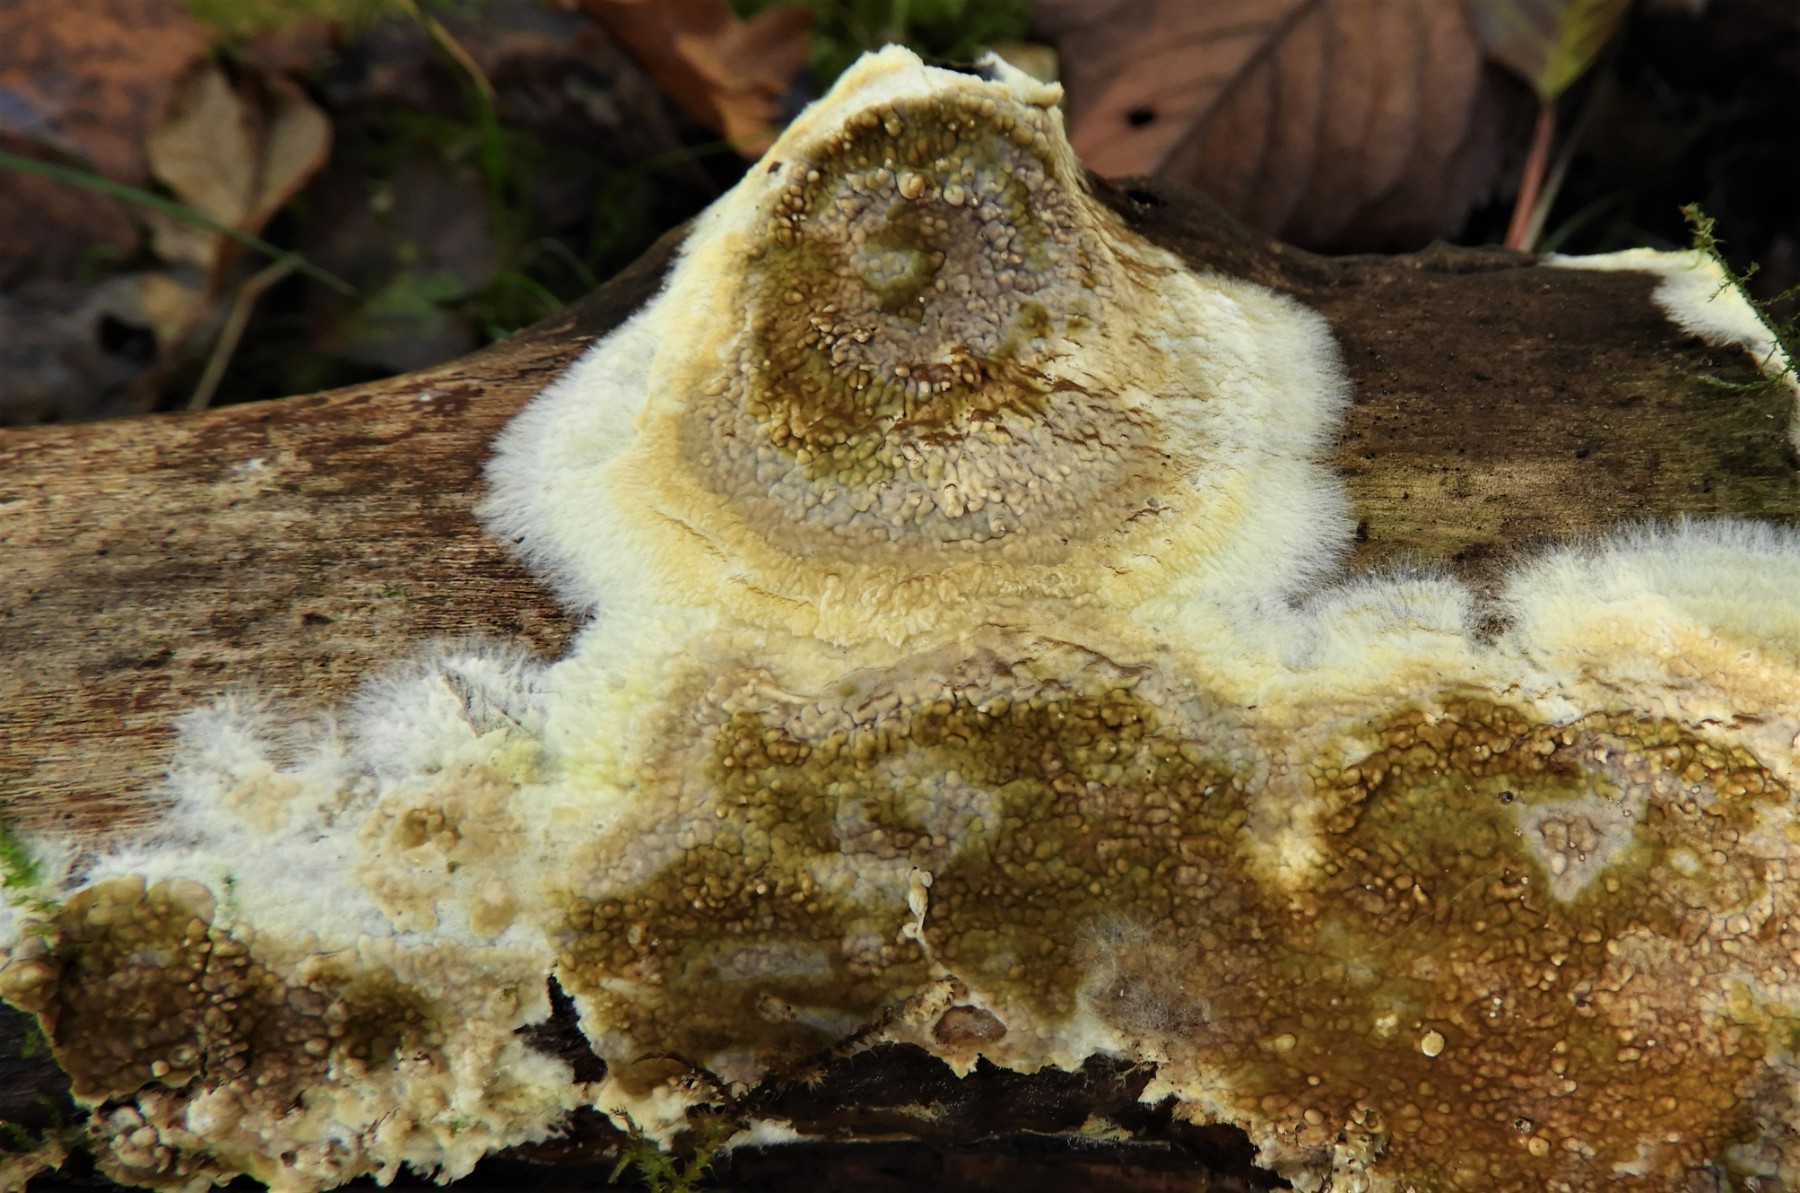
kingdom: Fungi
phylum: Basidiomycota
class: Agaricomycetes
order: Boletales
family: Coniophoraceae
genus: Coniophora
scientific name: Coniophora puteana
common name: gul tømmersvamp
